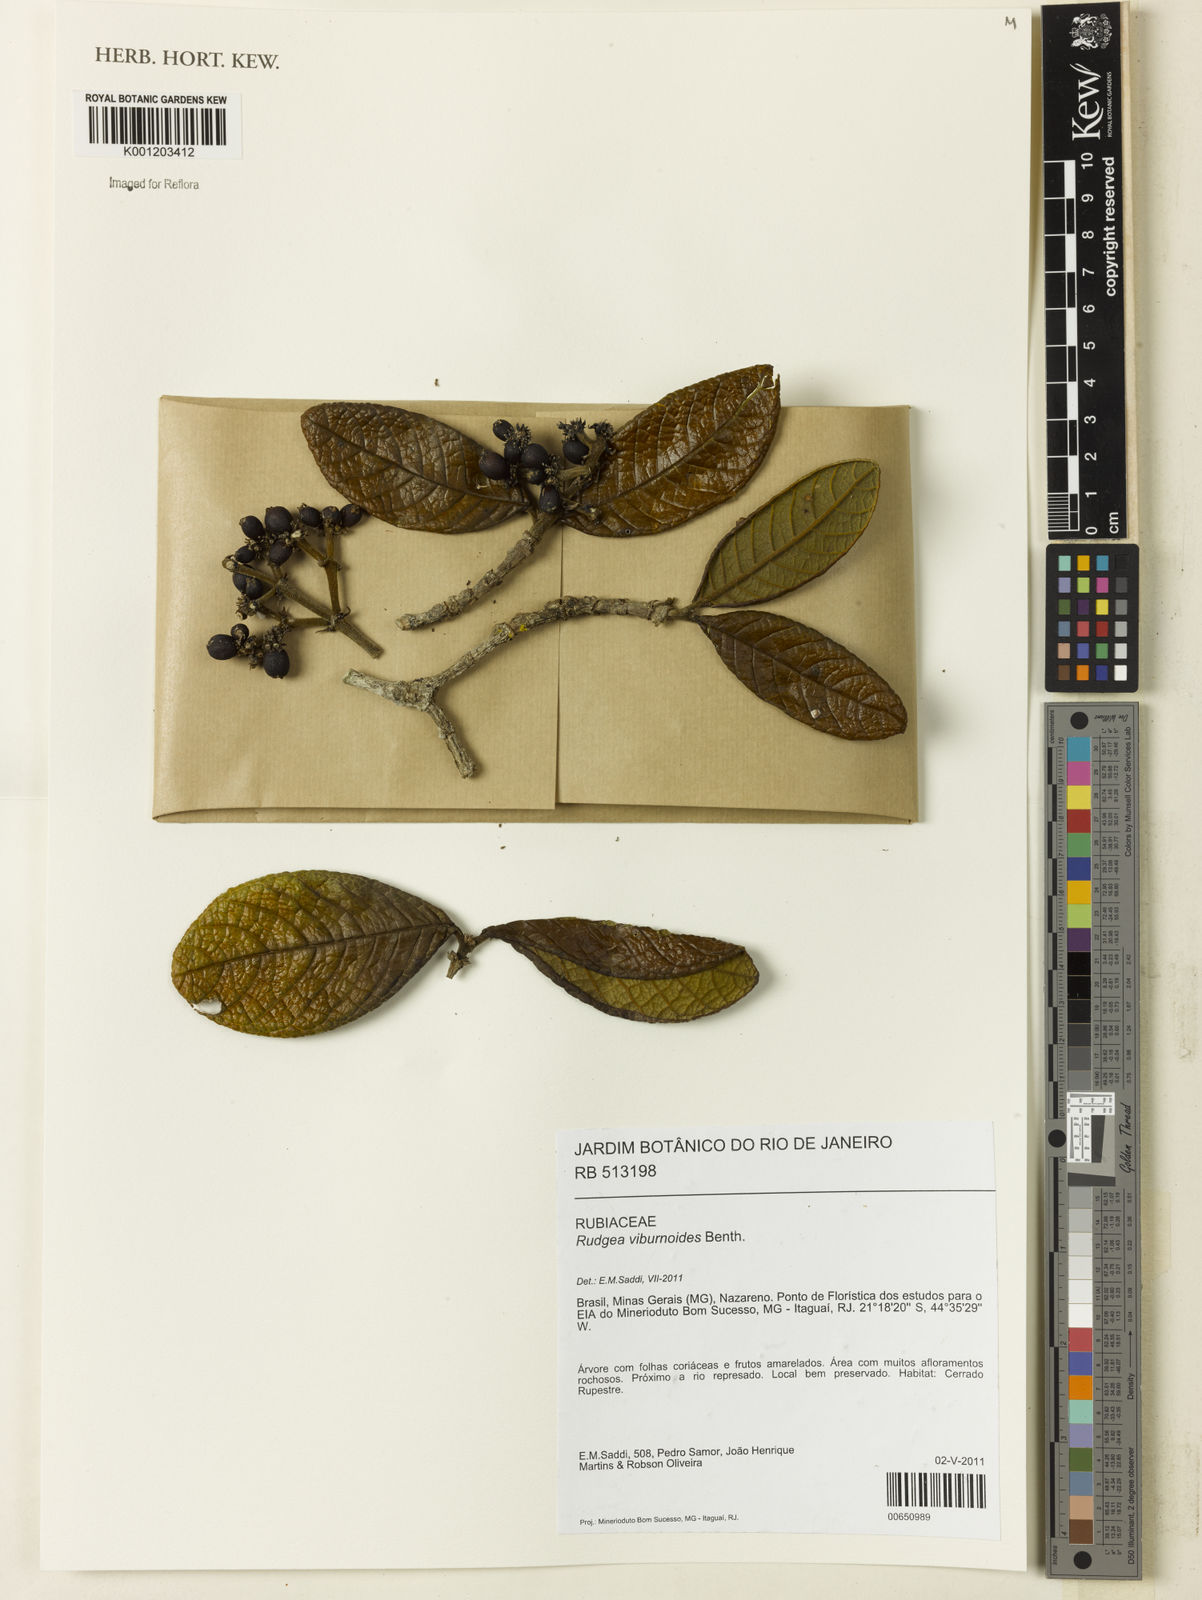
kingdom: Plantae
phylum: Tracheophyta
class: Magnoliopsida
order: Gentianales
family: Rubiaceae
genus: Rudgea
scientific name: Rudgea viburnoides
